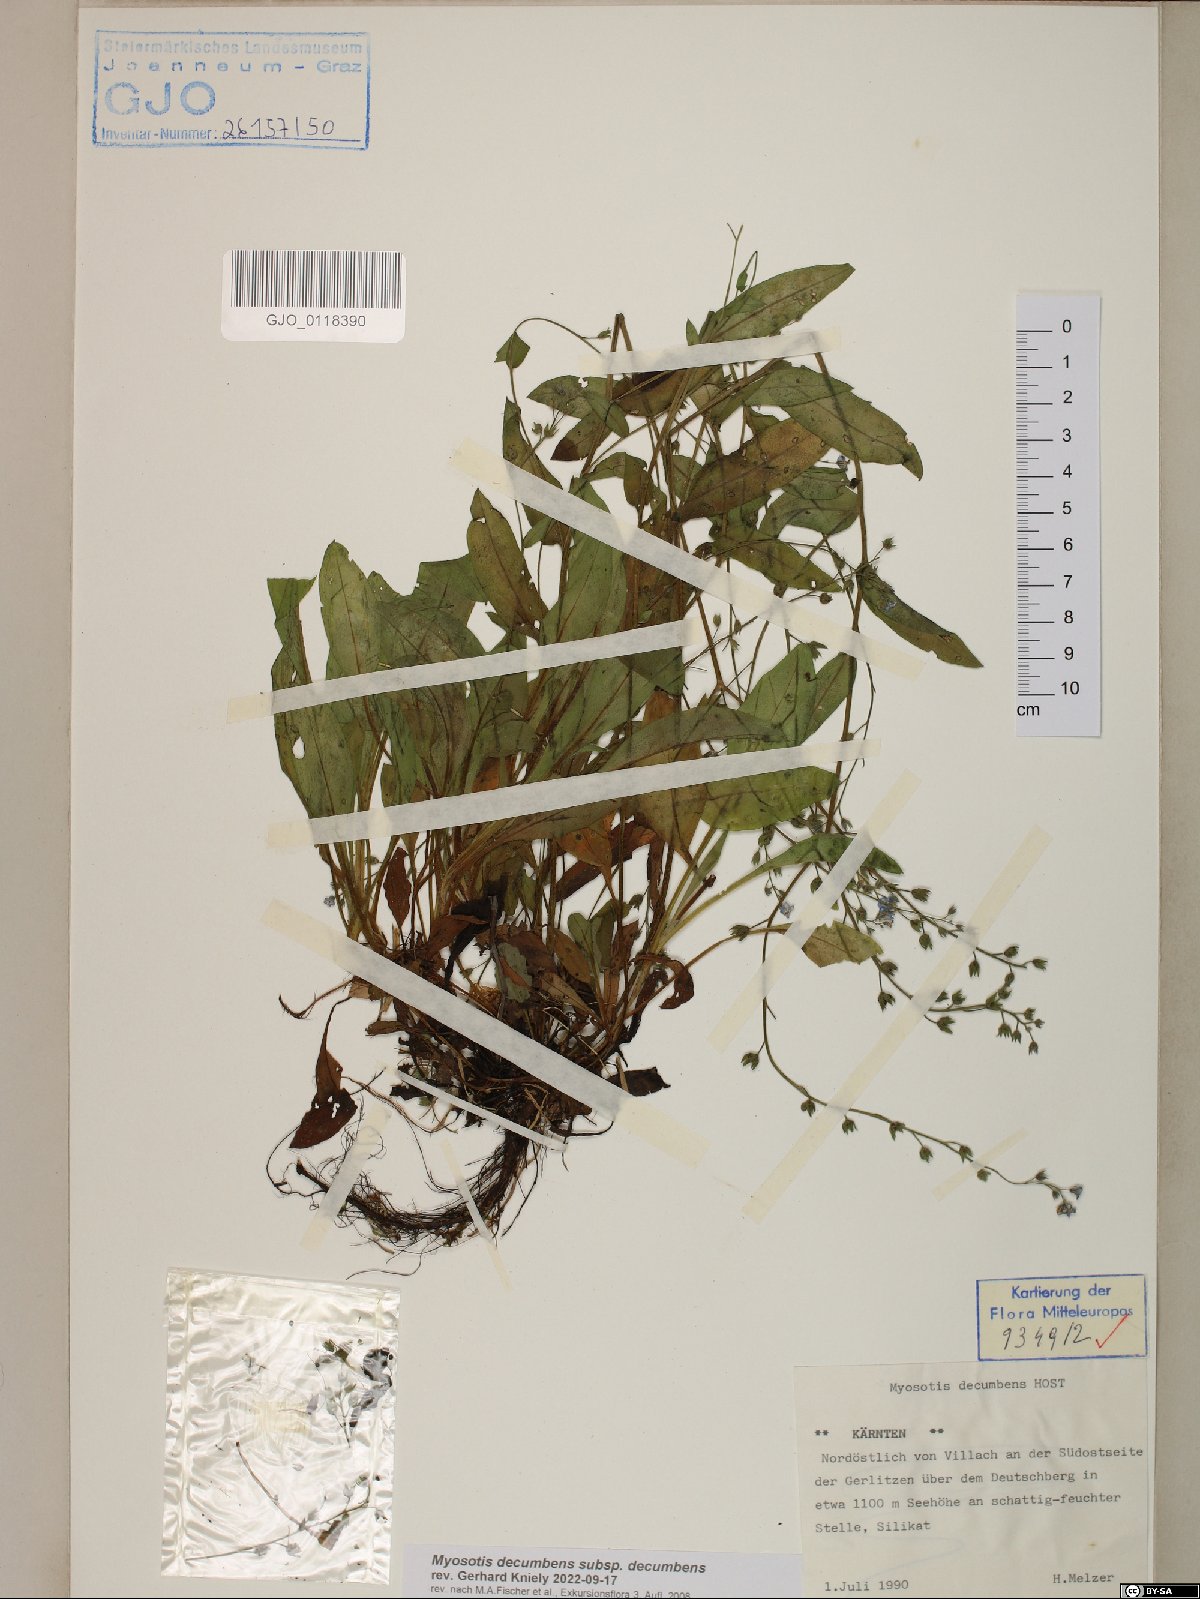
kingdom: Plantae
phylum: Tracheophyta
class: Magnoliopsida
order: Boraginales
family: Boraginaceae
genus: Myosotis
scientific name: Myosotis decumbens
